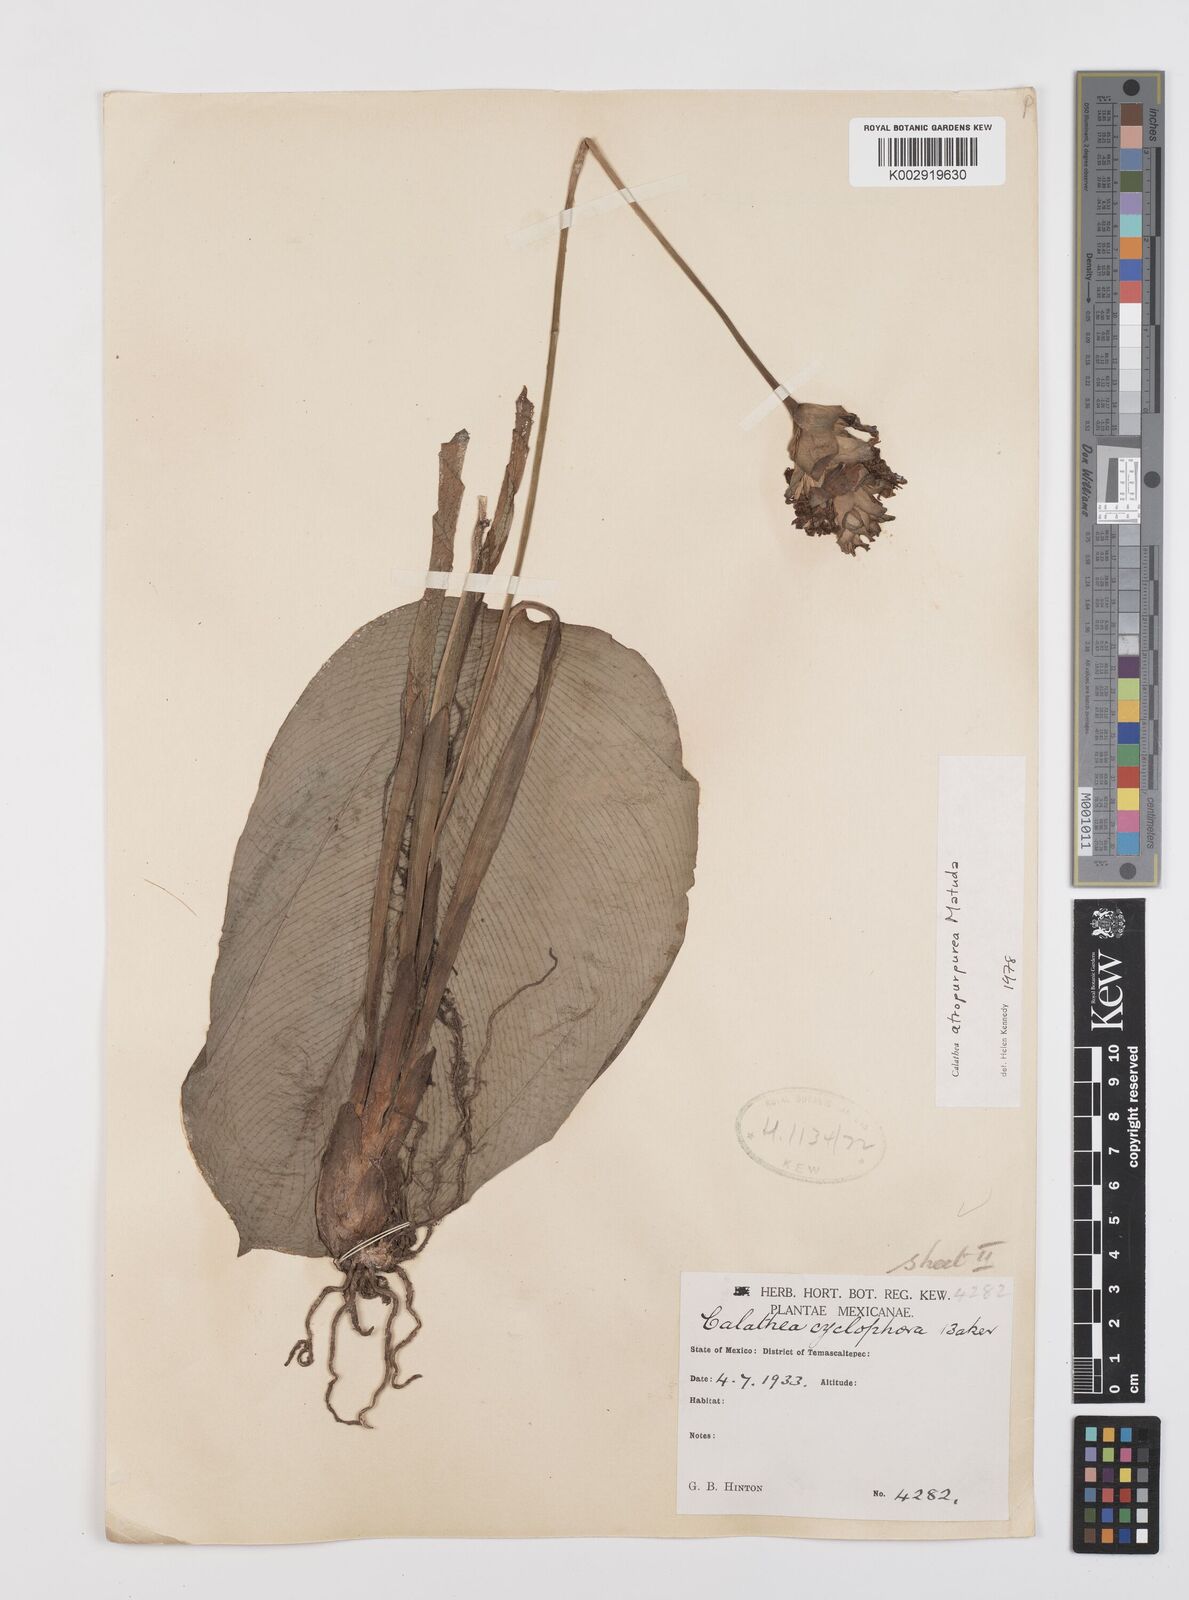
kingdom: Plantae
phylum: Tracheophyta
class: Liliopsida
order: Zingiberales
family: Marantaceae
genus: Goeppertia
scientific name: Goeppertia atropurpurea
